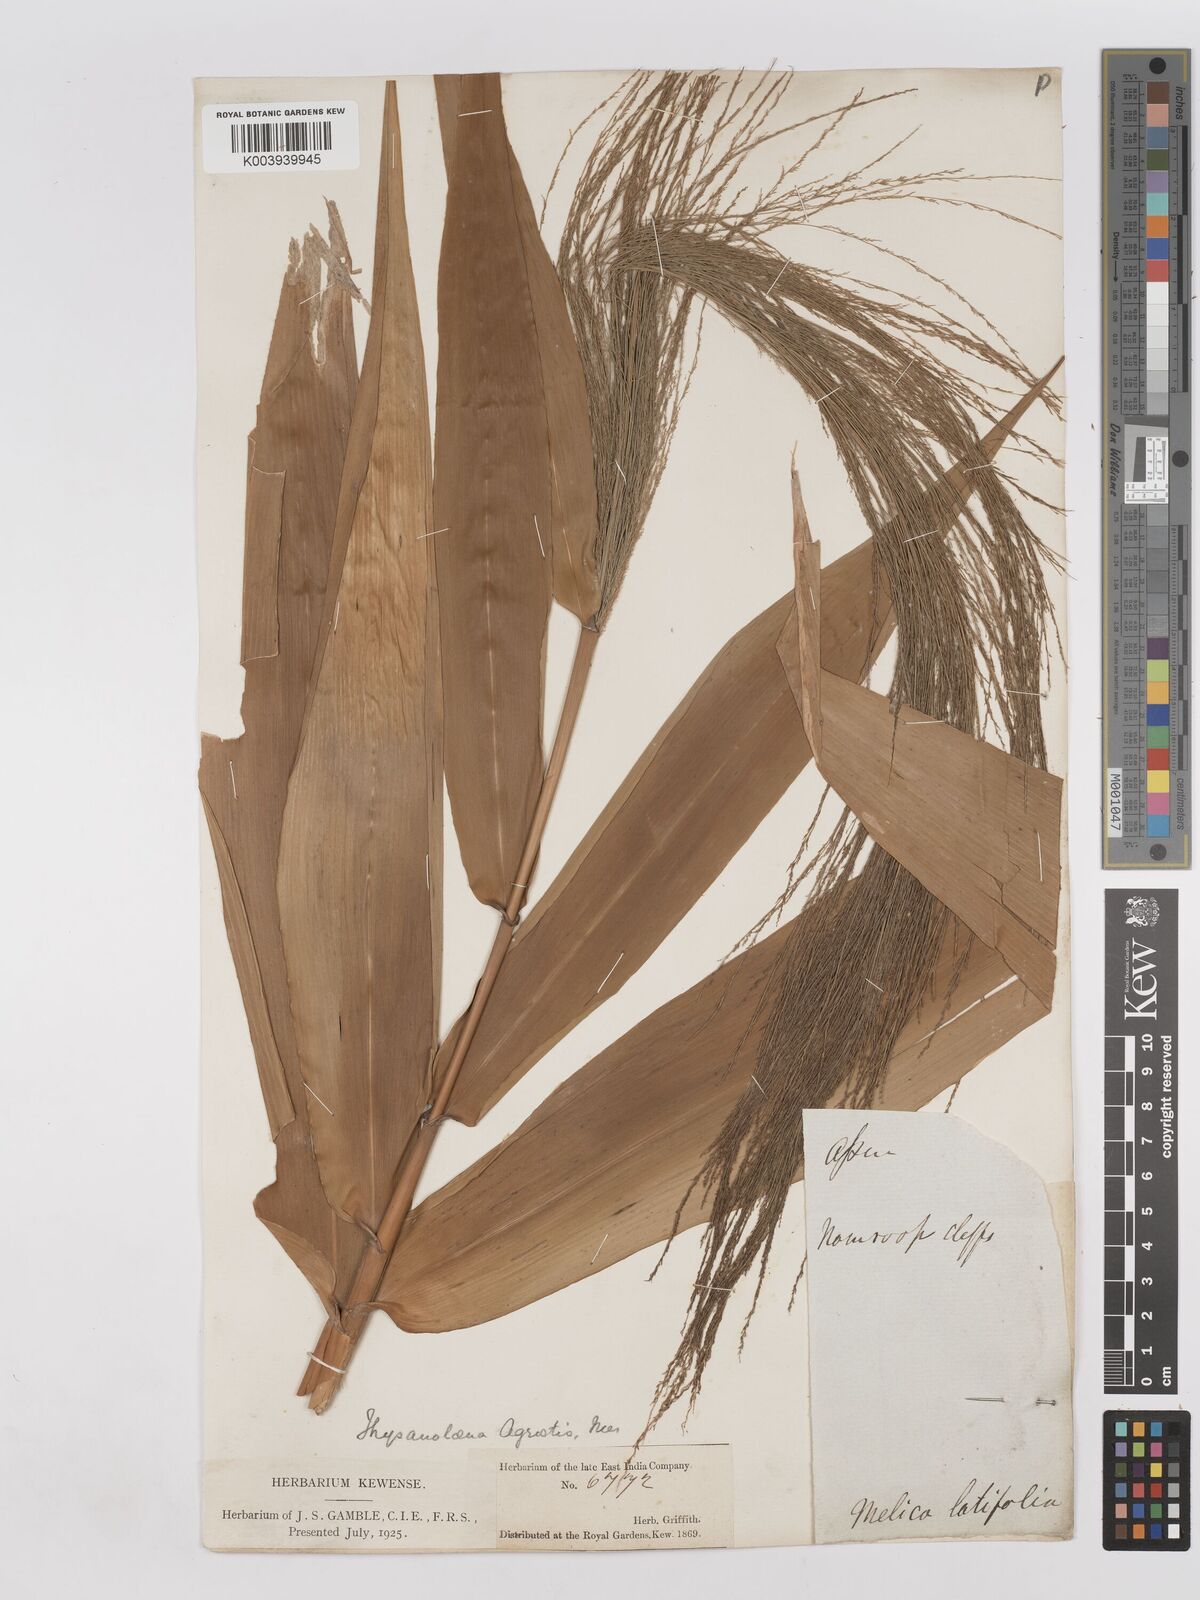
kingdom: Plantae
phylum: Tracheophyta
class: Liliopsida
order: Poales
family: Poaceae
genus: Thysanolaena
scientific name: Thysanolaena latifolia
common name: Tiger grass
